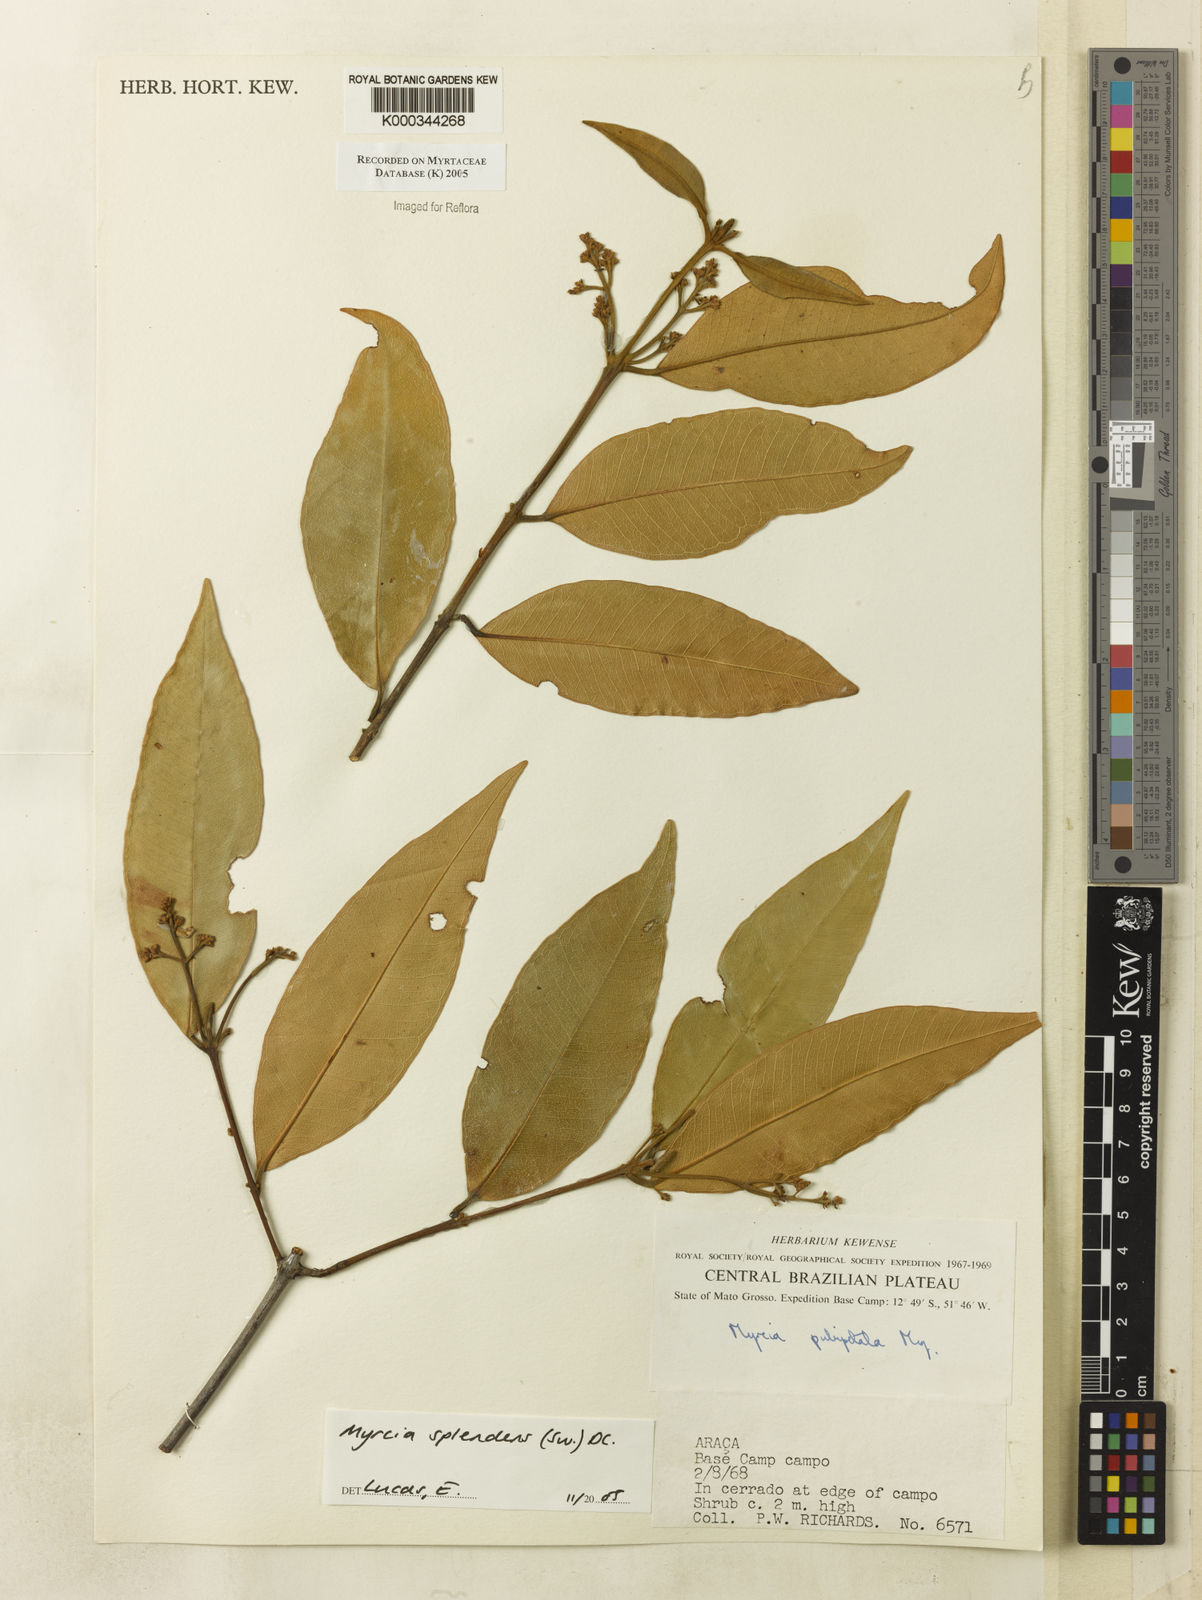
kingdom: Plantae
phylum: Tracheophyta
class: Magnoliopsida
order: Myrtales
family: Myrtaceae
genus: Myrcia
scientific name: Myrcia splendens
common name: Surinam cherry
